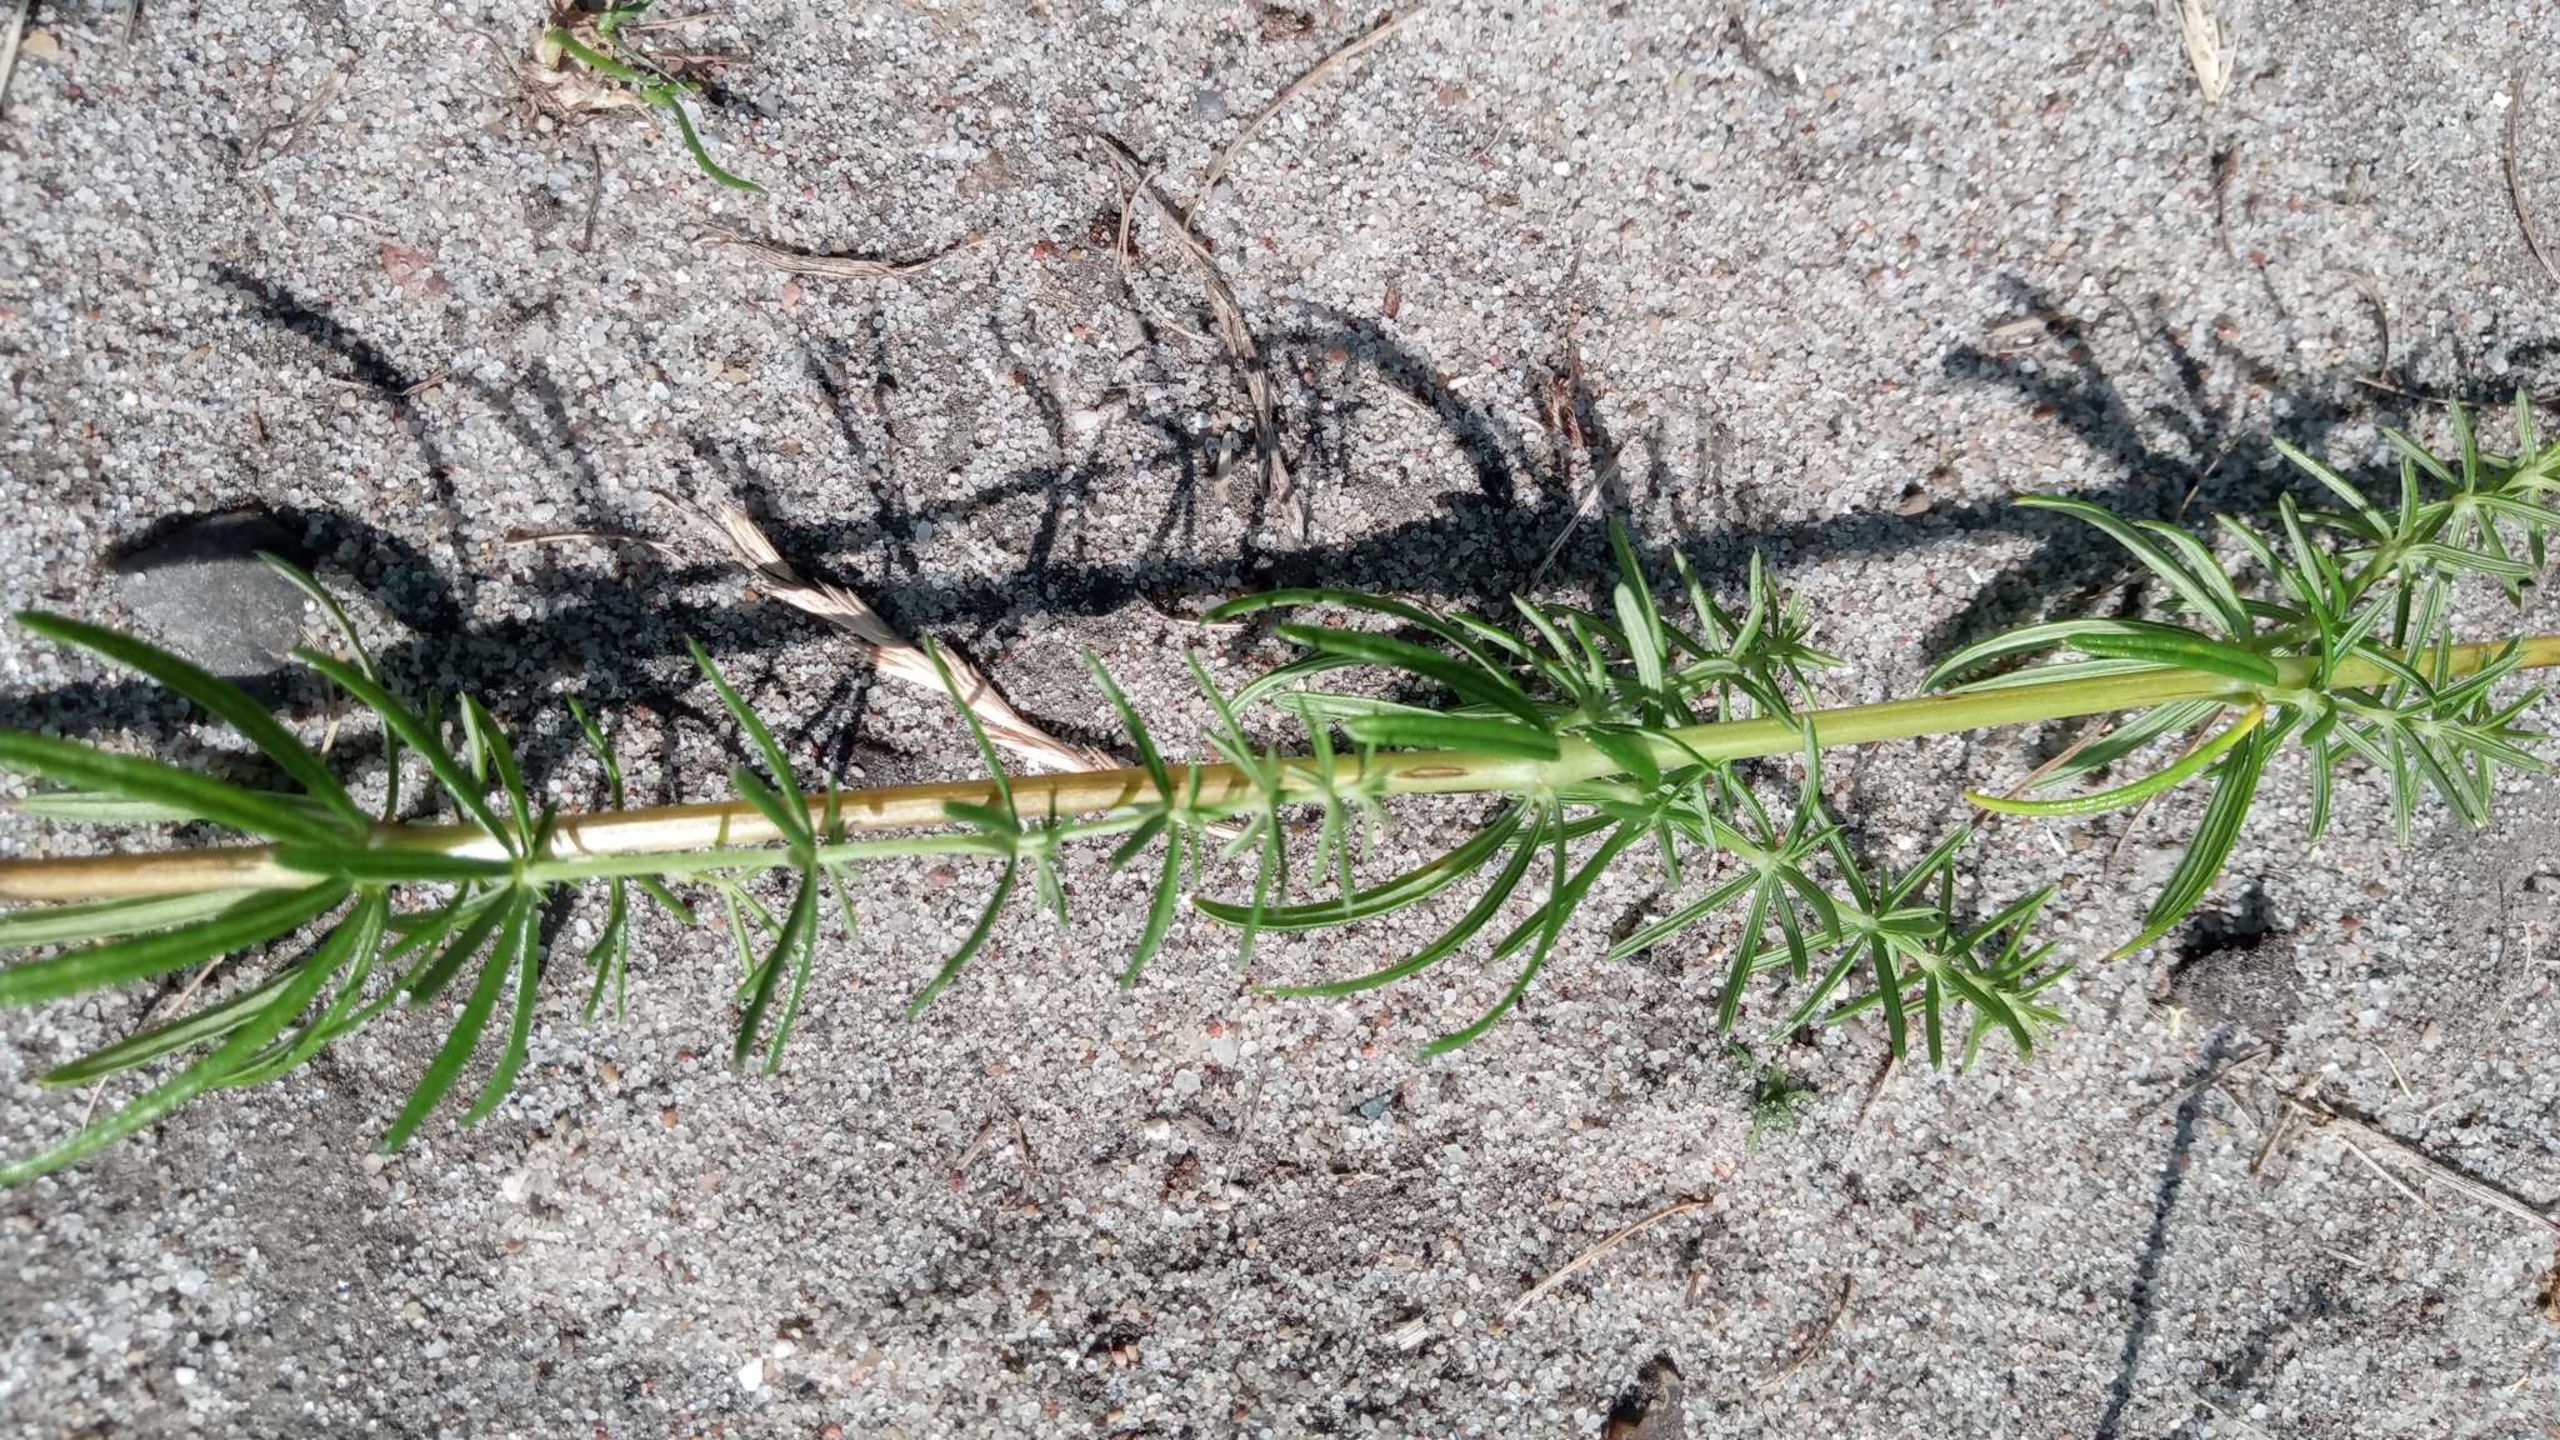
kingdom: Plantae
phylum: Tracheophyta
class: Magnoliopsida
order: Gentianales
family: Rubiaceae
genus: Galium
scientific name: Galium verum
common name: Gul snerre
